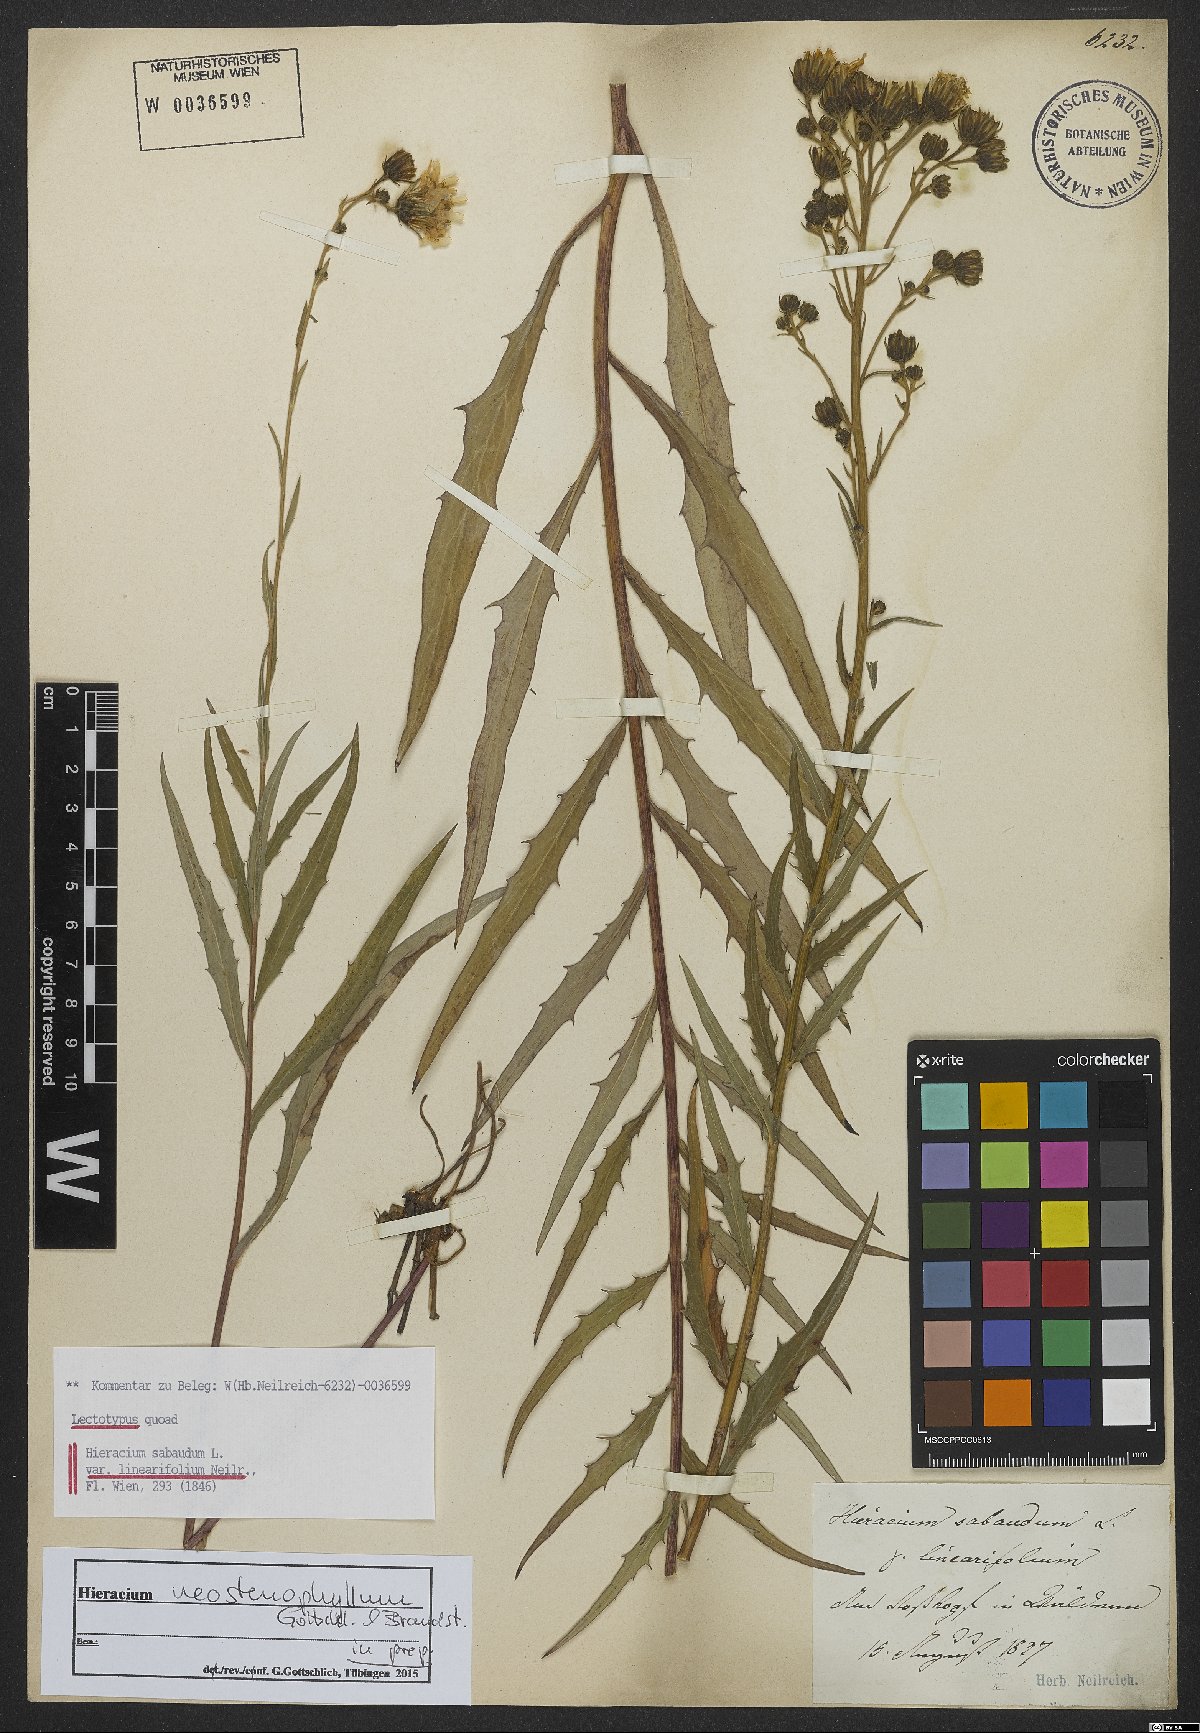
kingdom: Plantae
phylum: Tracheophyta
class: Magnoliopsida
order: Asterales
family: Asteraceae
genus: Hieracium
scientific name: Hieracium neostenophyllum
